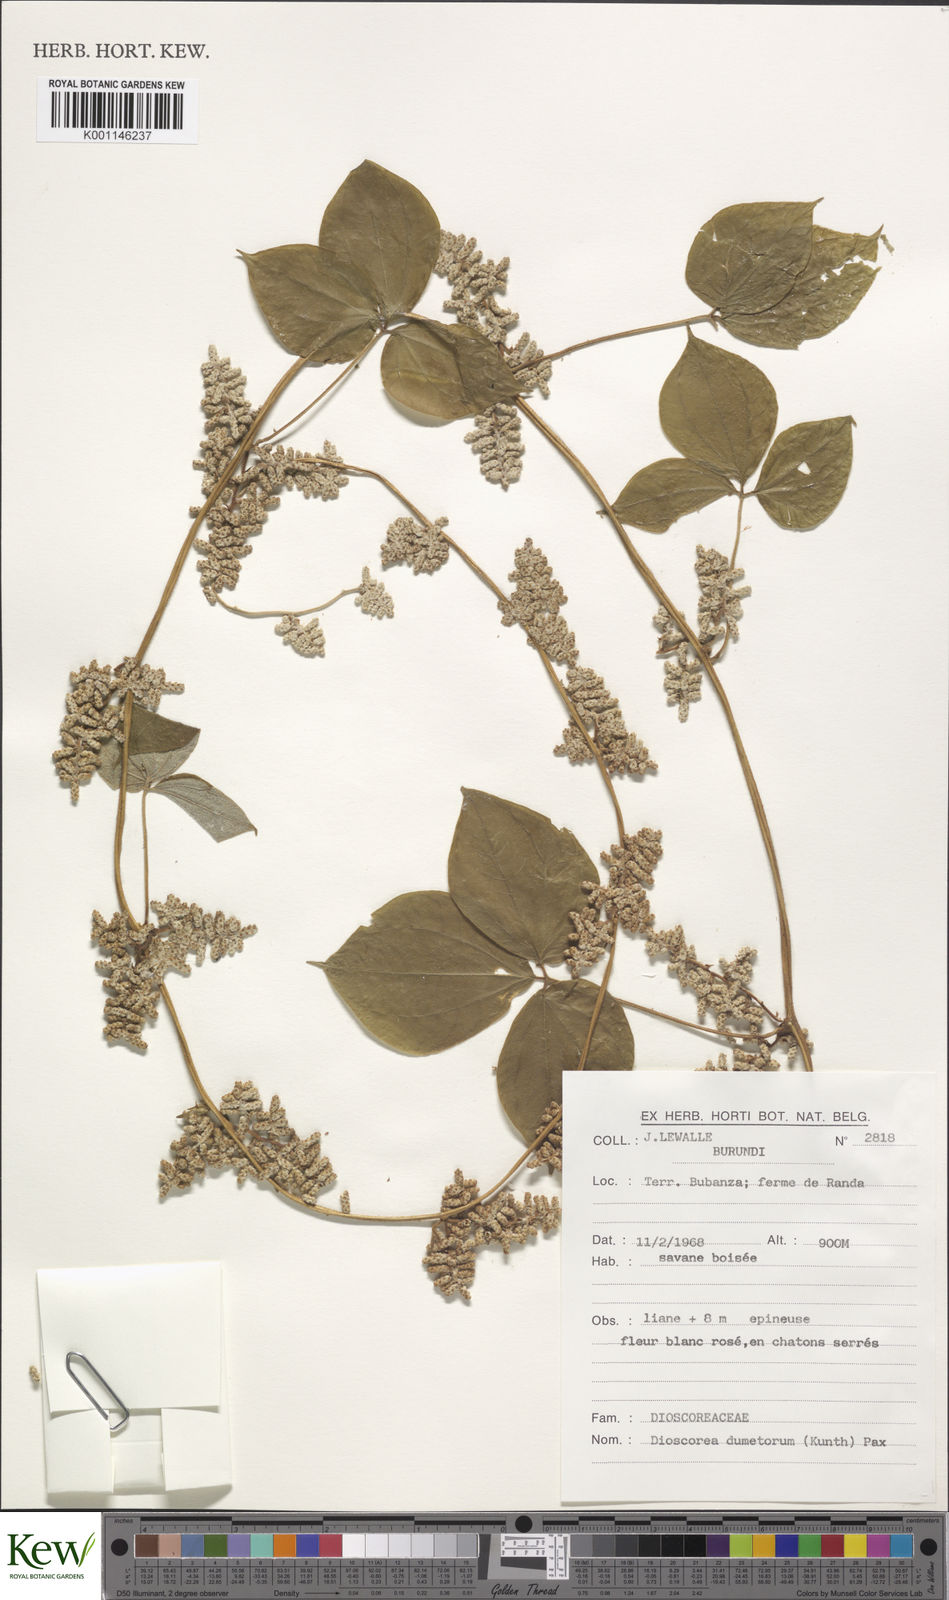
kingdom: Plantae
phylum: Tracheophyta
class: Liliopsida
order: Dioscoreales
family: Dioscoreaceae
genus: Dioscorea
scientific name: Dioscorea dumetorum
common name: African bitter yam
